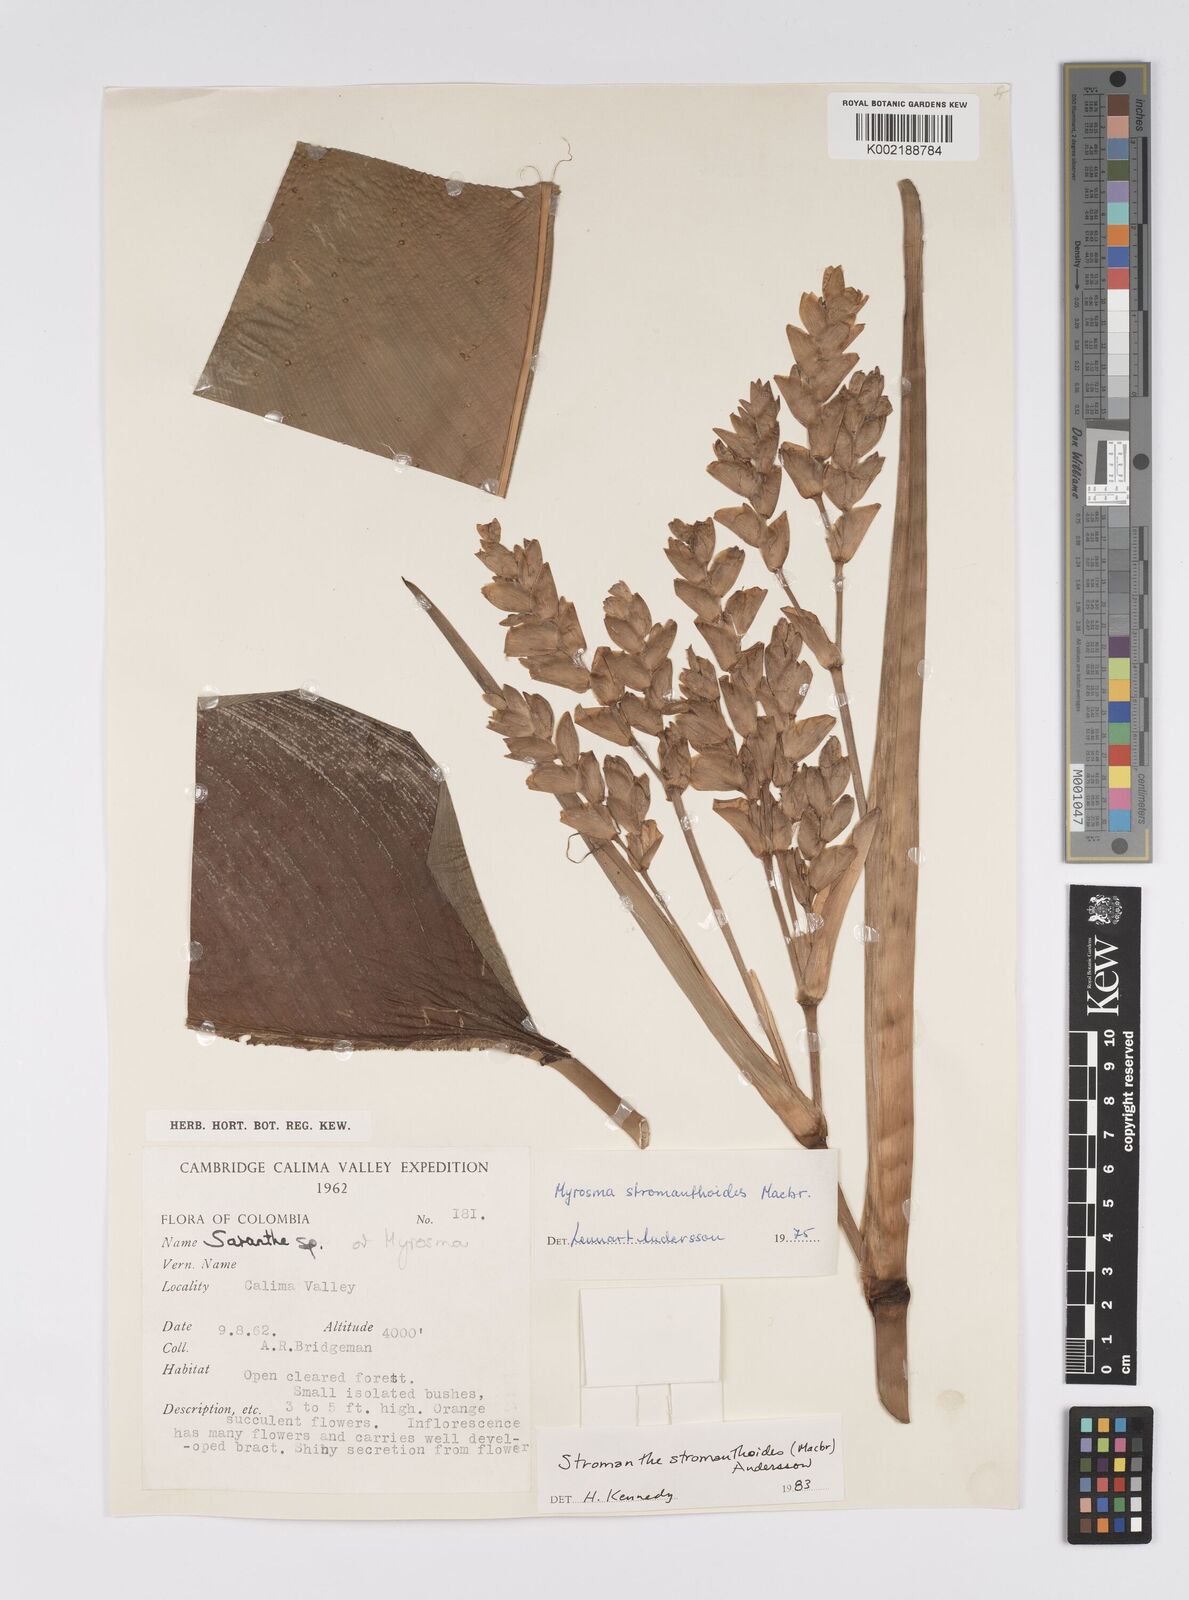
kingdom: Plantae
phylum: Tracheophyta
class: Liliopsida
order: Zingiberales
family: Marantaceae
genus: Stromanthe
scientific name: Stromanthe stromanthoides
